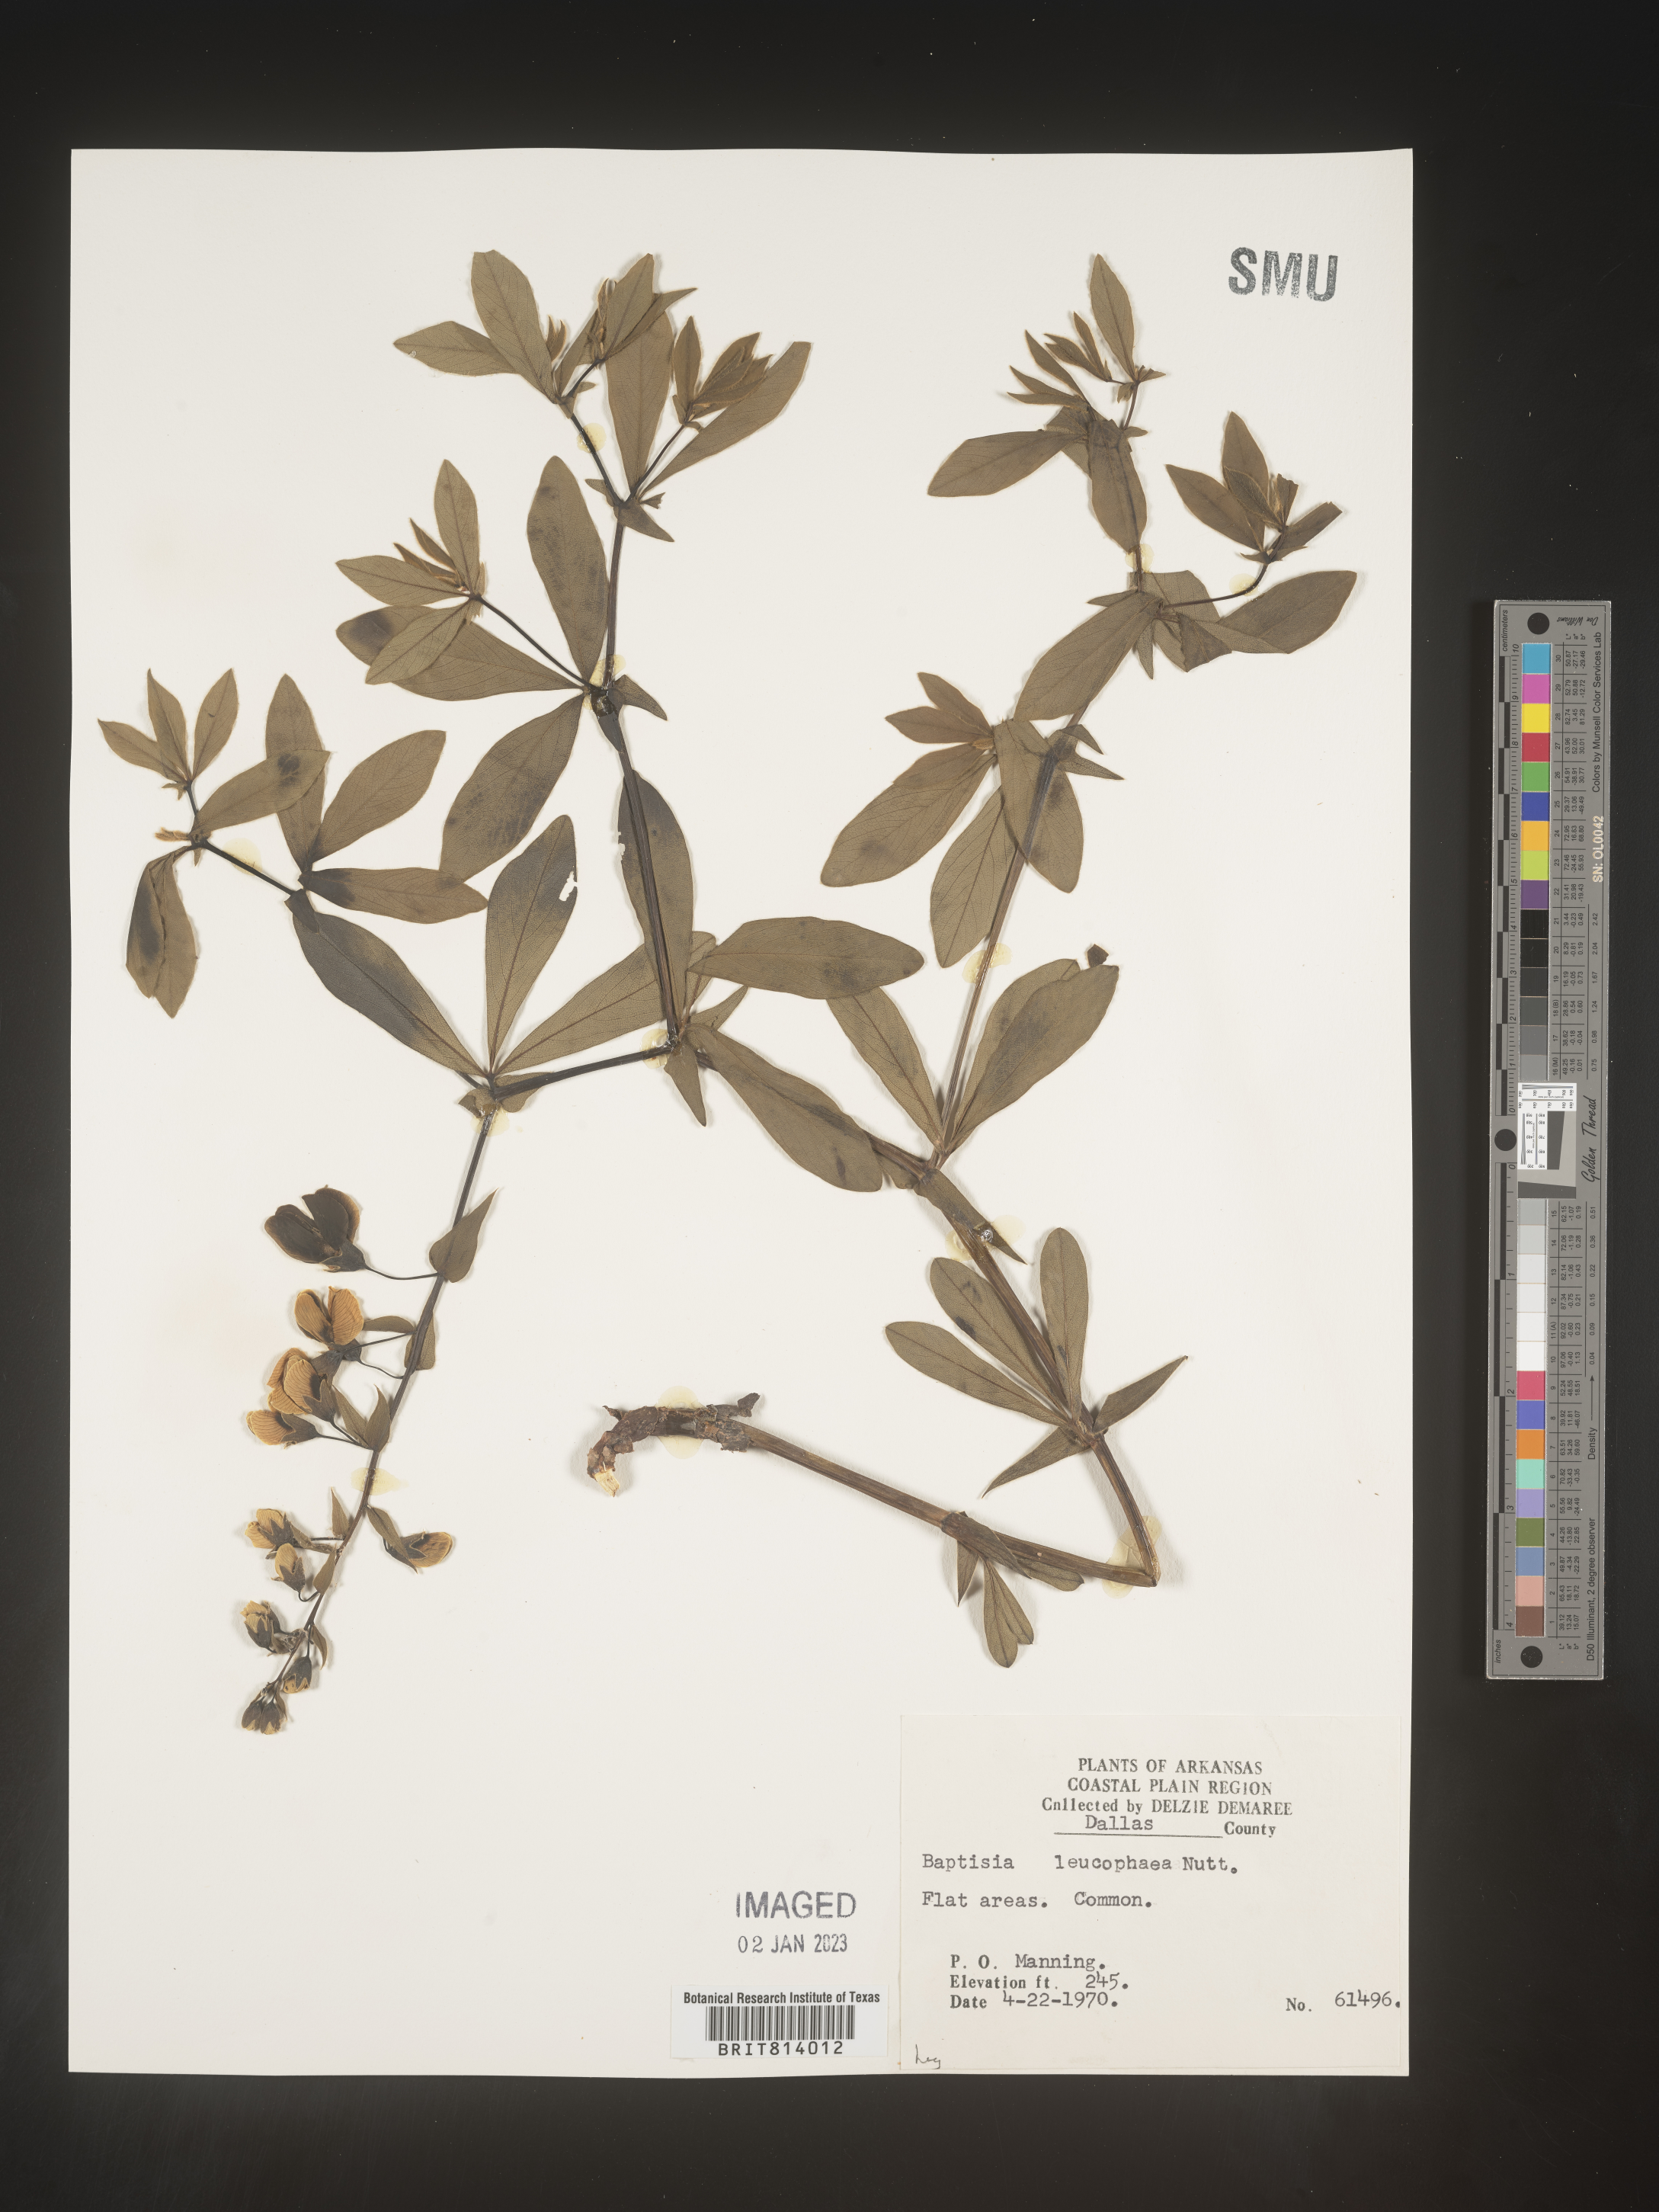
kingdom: Plantae
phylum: Tracheophyta
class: Magnoliopsida
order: Fabales
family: Fabaceae
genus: Baptisia
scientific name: Baptisia bracteata
